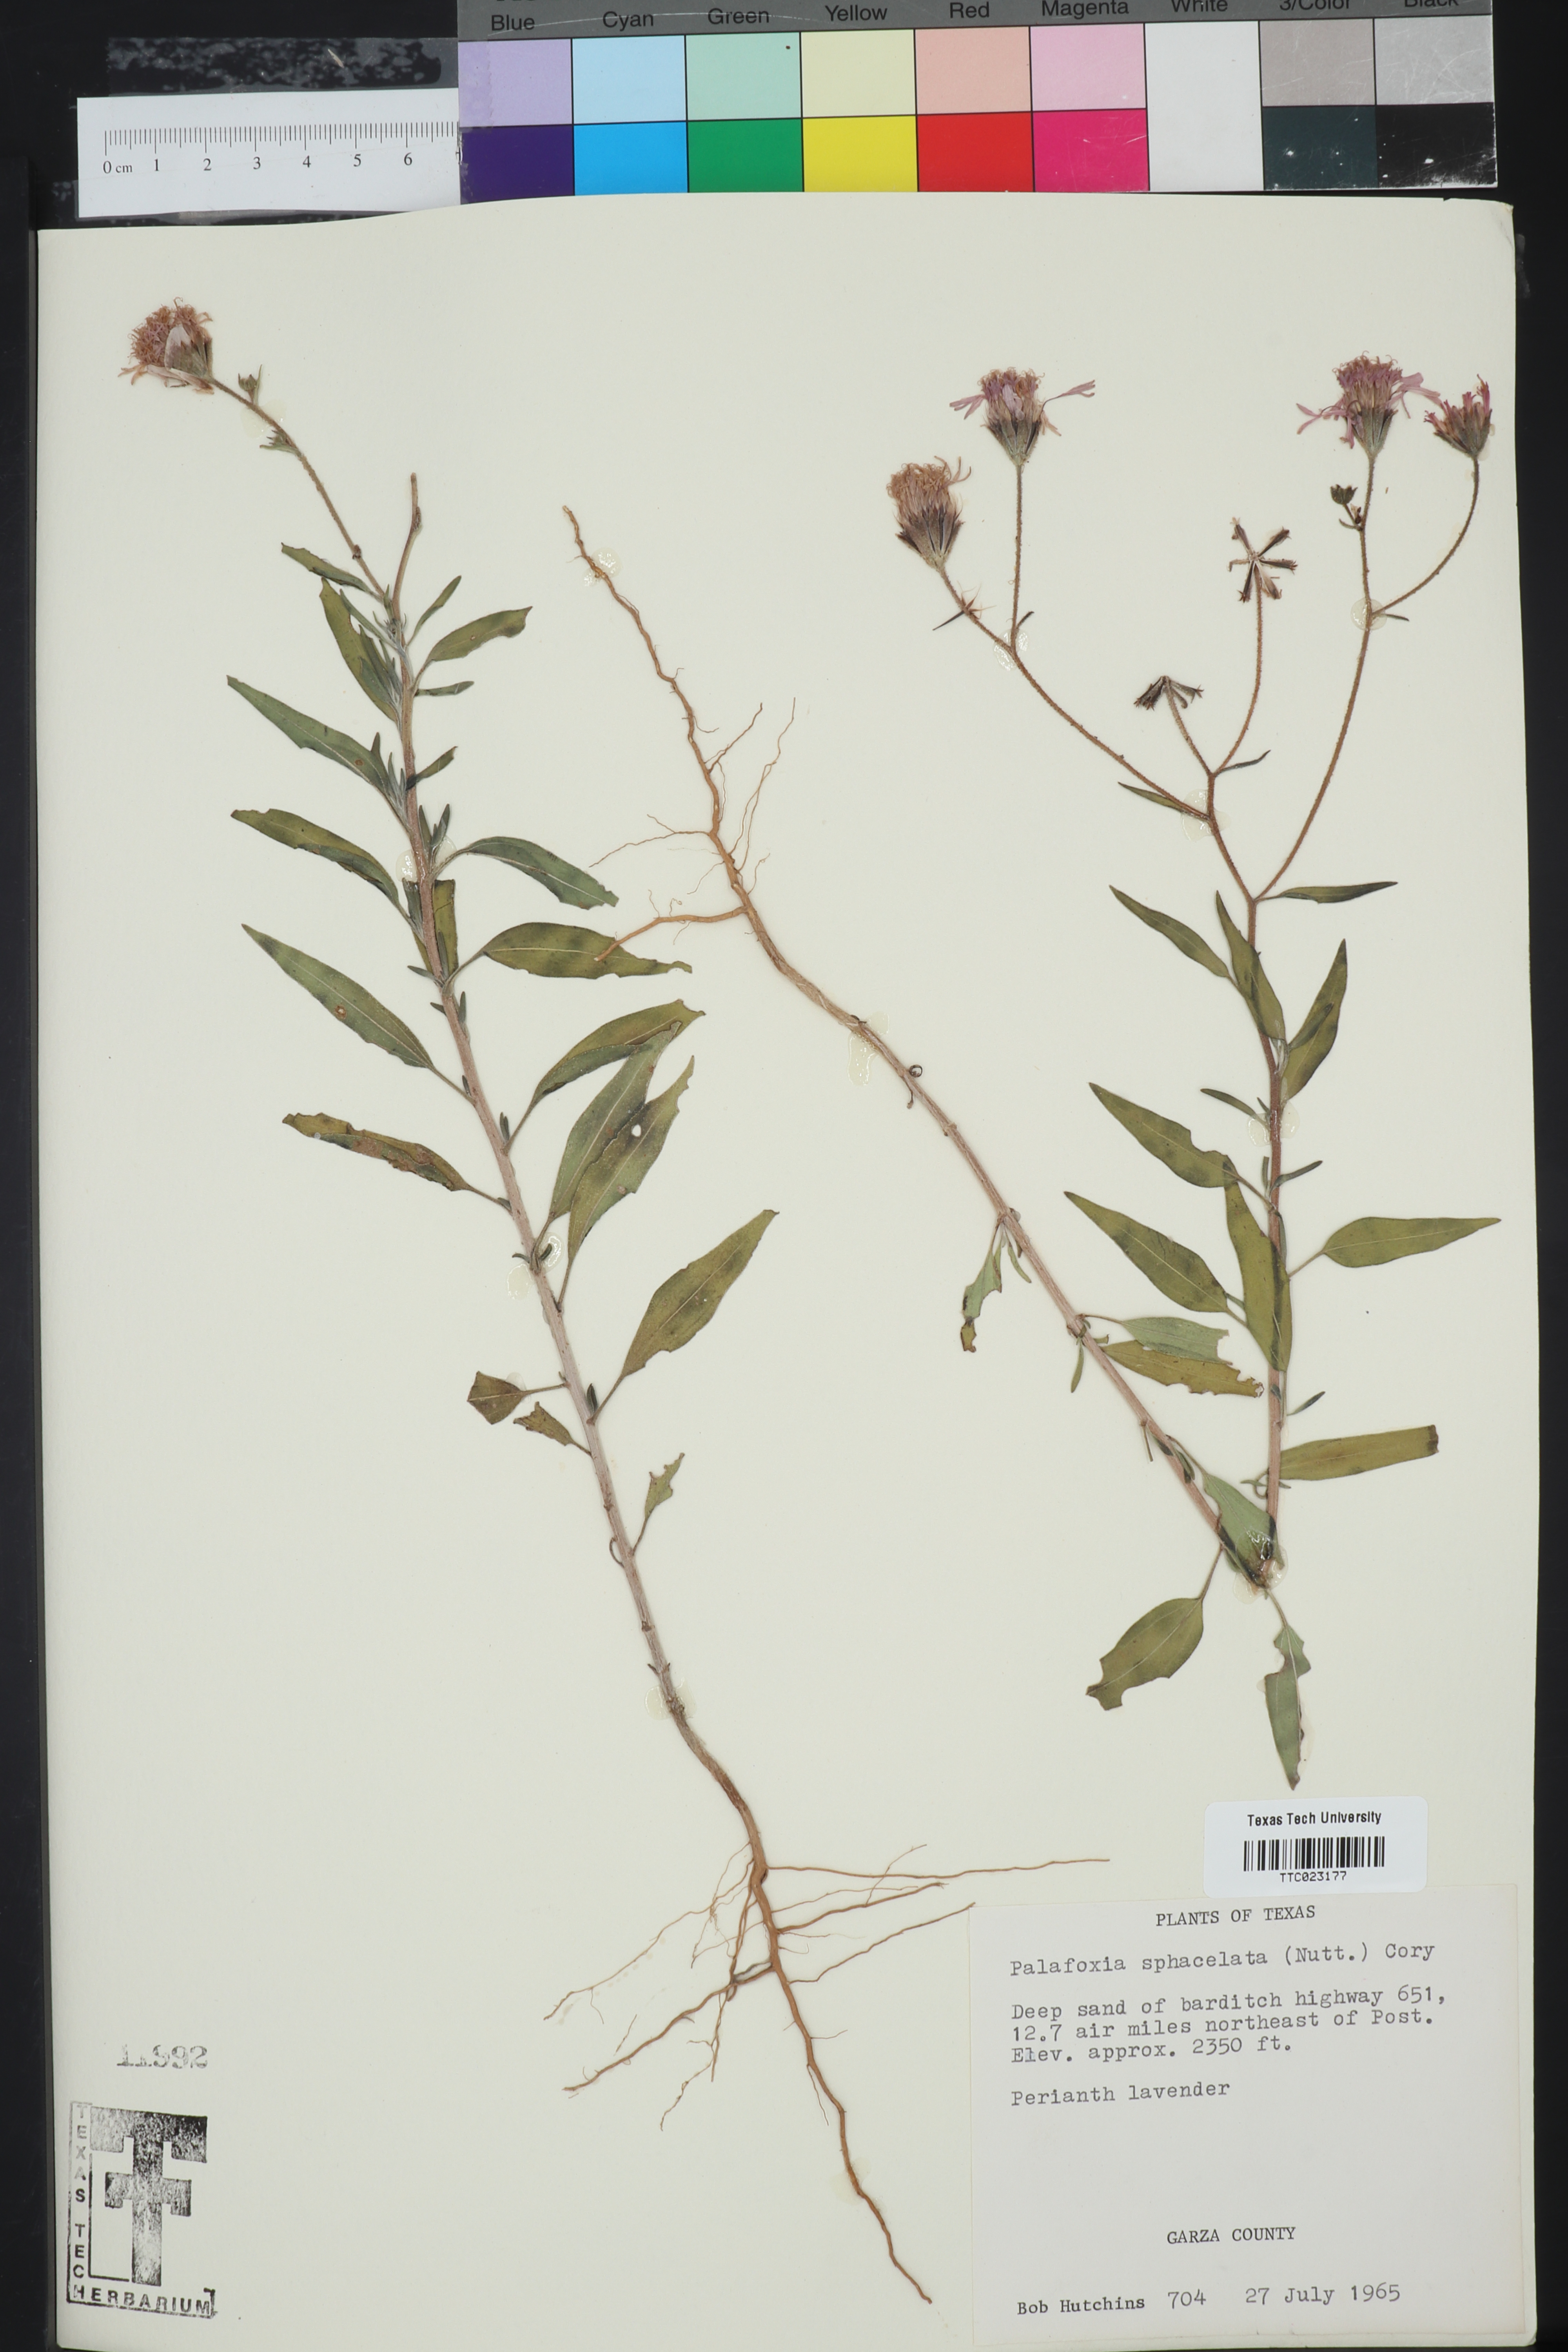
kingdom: Plantae
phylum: Tracheophyta
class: Magnoliopsida
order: Asterales
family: Asteraceae
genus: Palafoxia
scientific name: Palafoxia sphacelata
